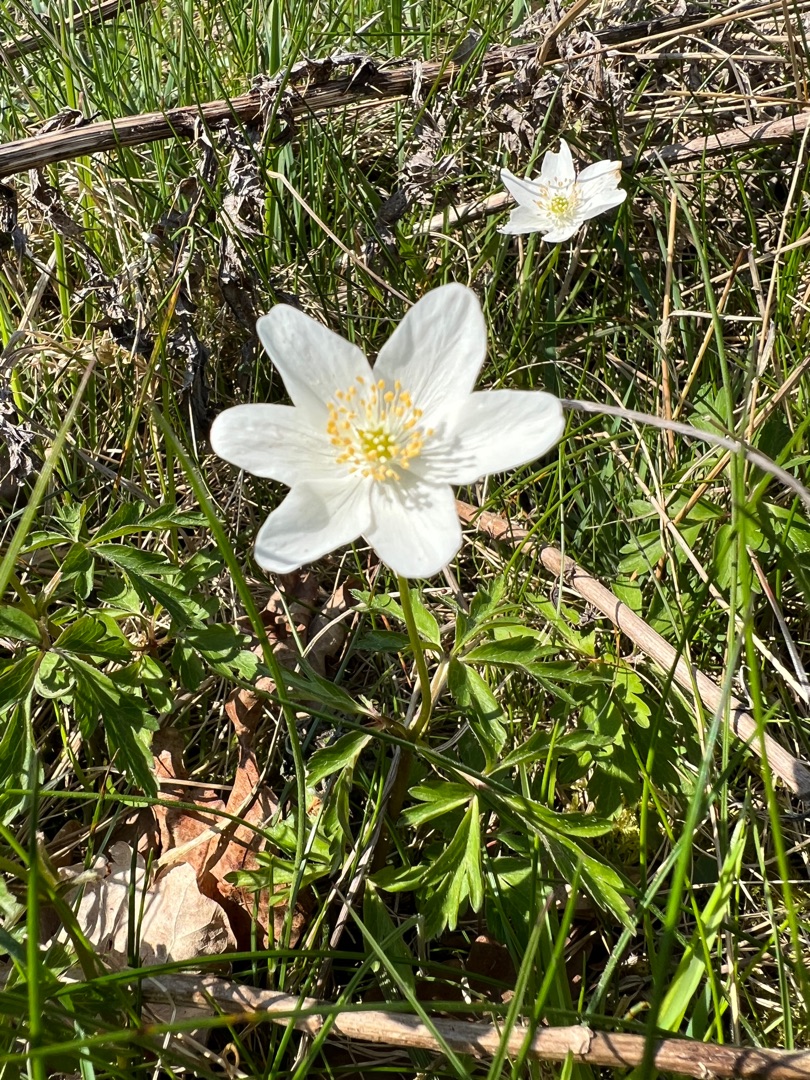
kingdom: Plantae
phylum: Tracheophyta
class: Magnoliopsida
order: Ranunculales
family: Ranunculaceae
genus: Anemone
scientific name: Anemone nemorosa
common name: Hvid anemone
